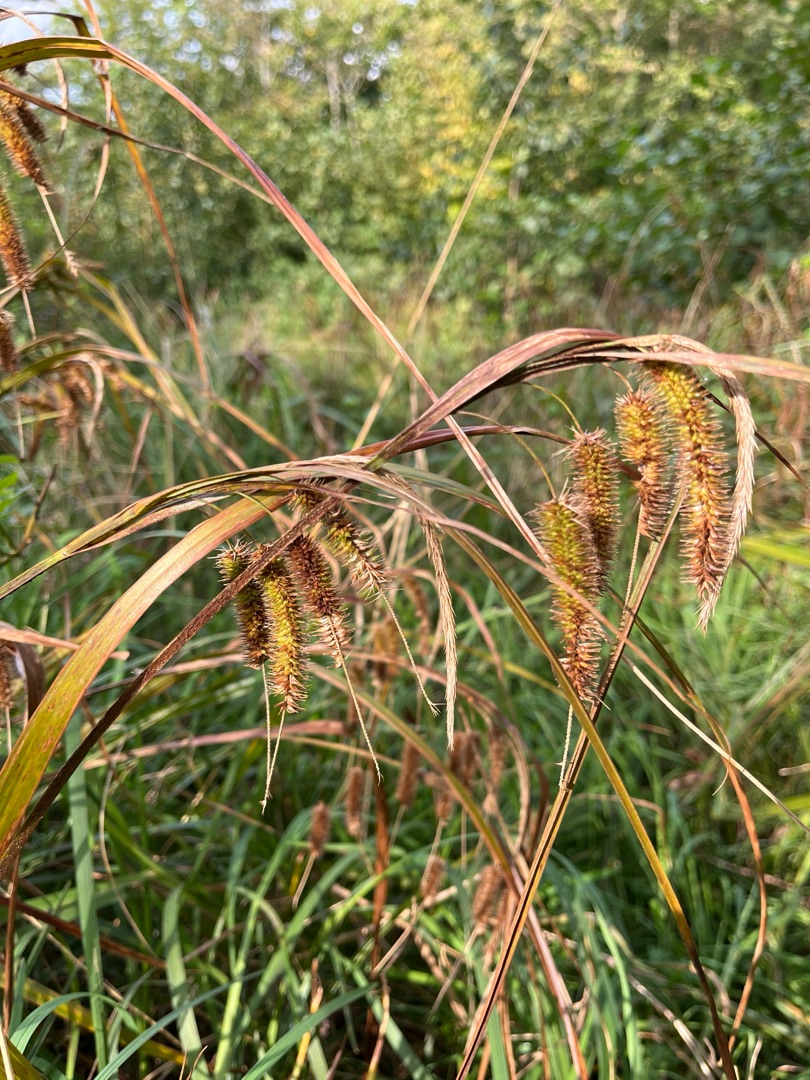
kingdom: Plantae
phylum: Tracheophyta
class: Liliopsida
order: Poales
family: Cyperaceae
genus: Carex
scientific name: Carex pseudocyperus
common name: Knippe-star
